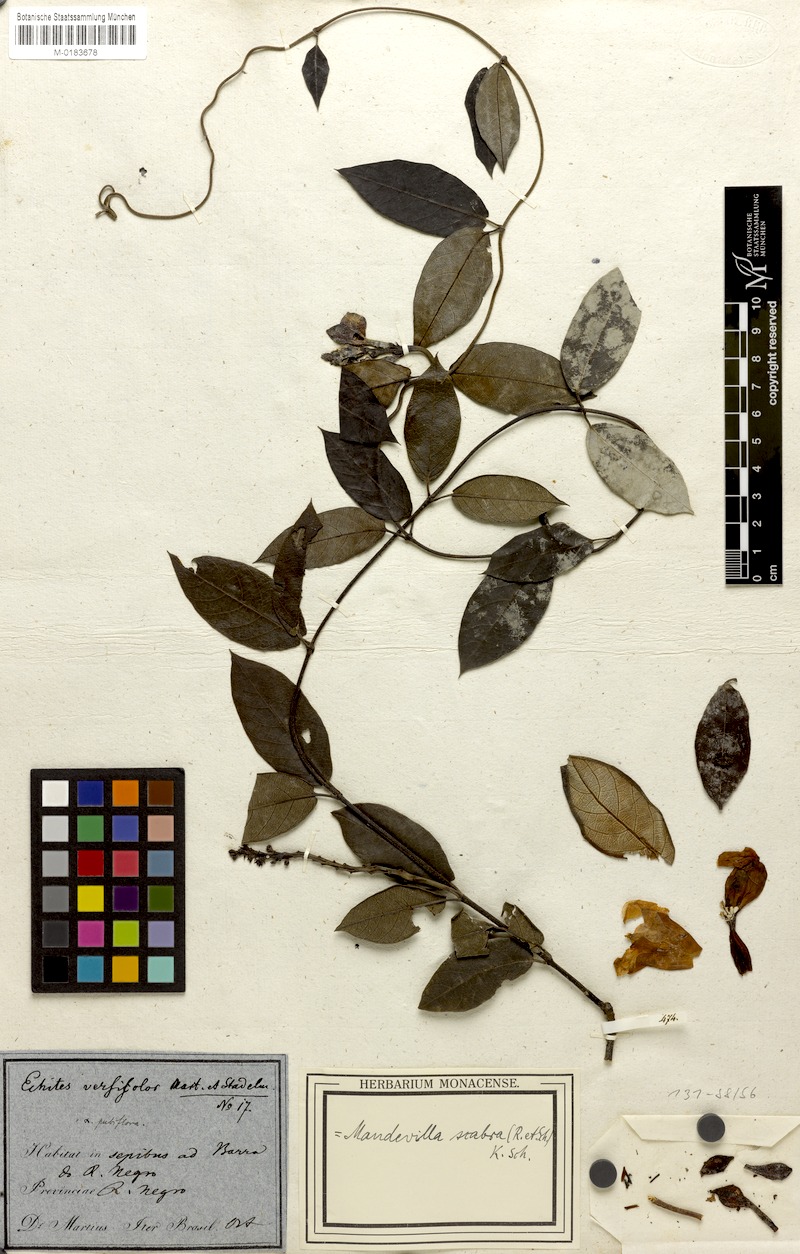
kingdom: Plantae
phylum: Tracheophyta
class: Magnoliopsida
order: Gentianales
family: Apocynaceae
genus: Mandevilla
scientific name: Mandevilla scabra
